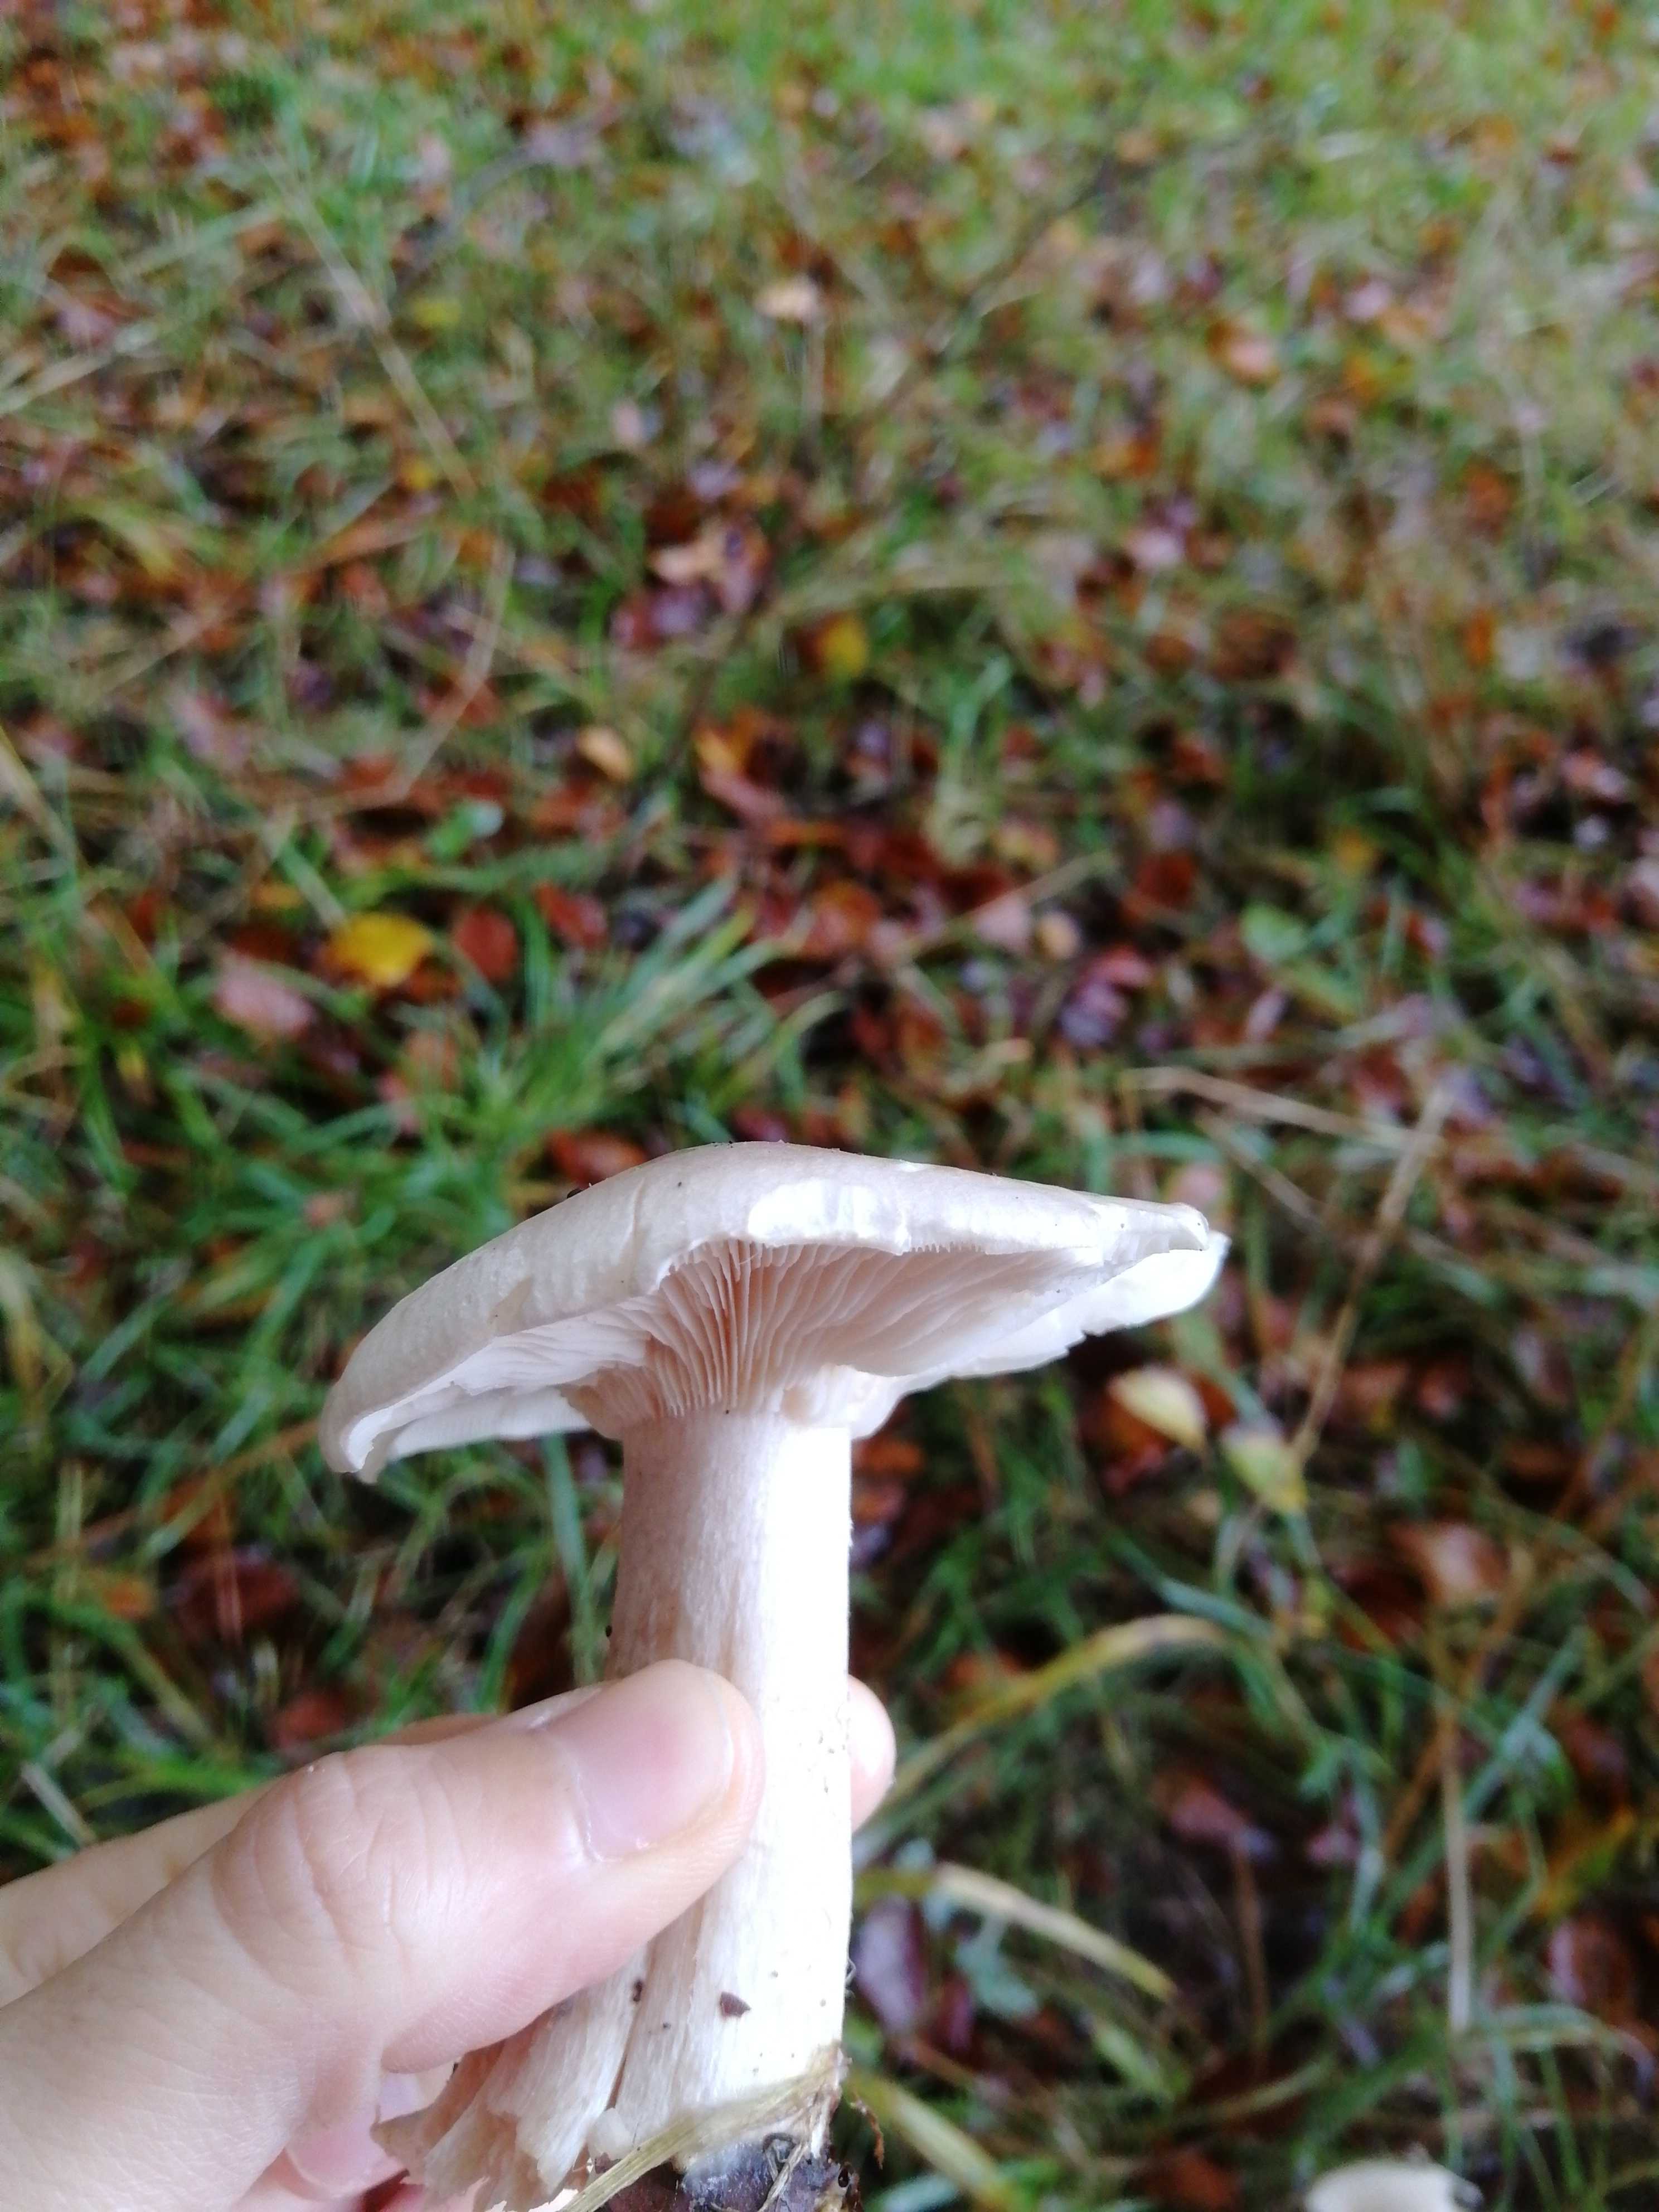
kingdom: Fungi
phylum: Basidiomycota
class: Agaricomycetes
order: Agaricales
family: Tricholomataceae
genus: Clitocybe
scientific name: Clitocybe nebularis
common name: tåge-tragthat
